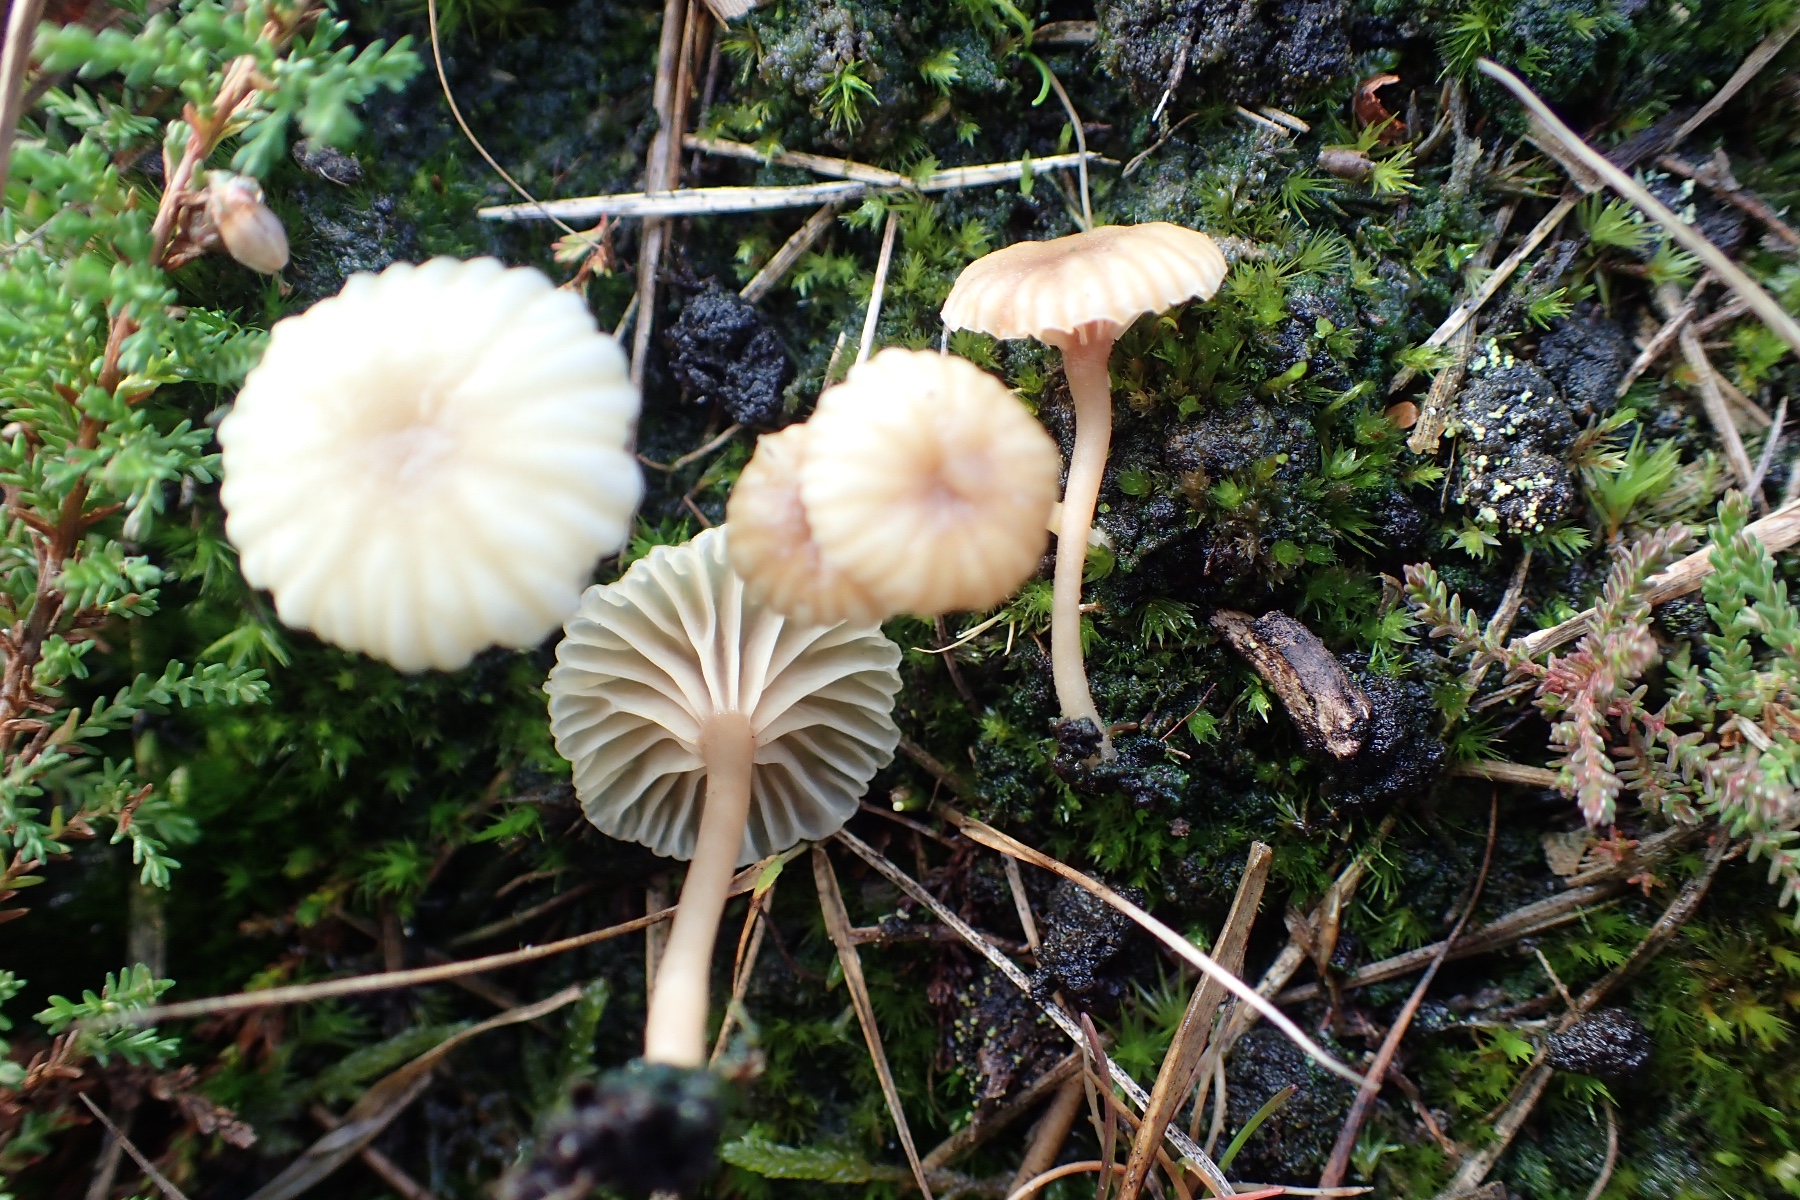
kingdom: Fungi
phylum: Basidiomycota
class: Agaricomycetes
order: Agaricales
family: Hygrophoraceae
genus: Lichenomphalia
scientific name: Lichenomphalia umbellifera
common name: tørve-lavhat
